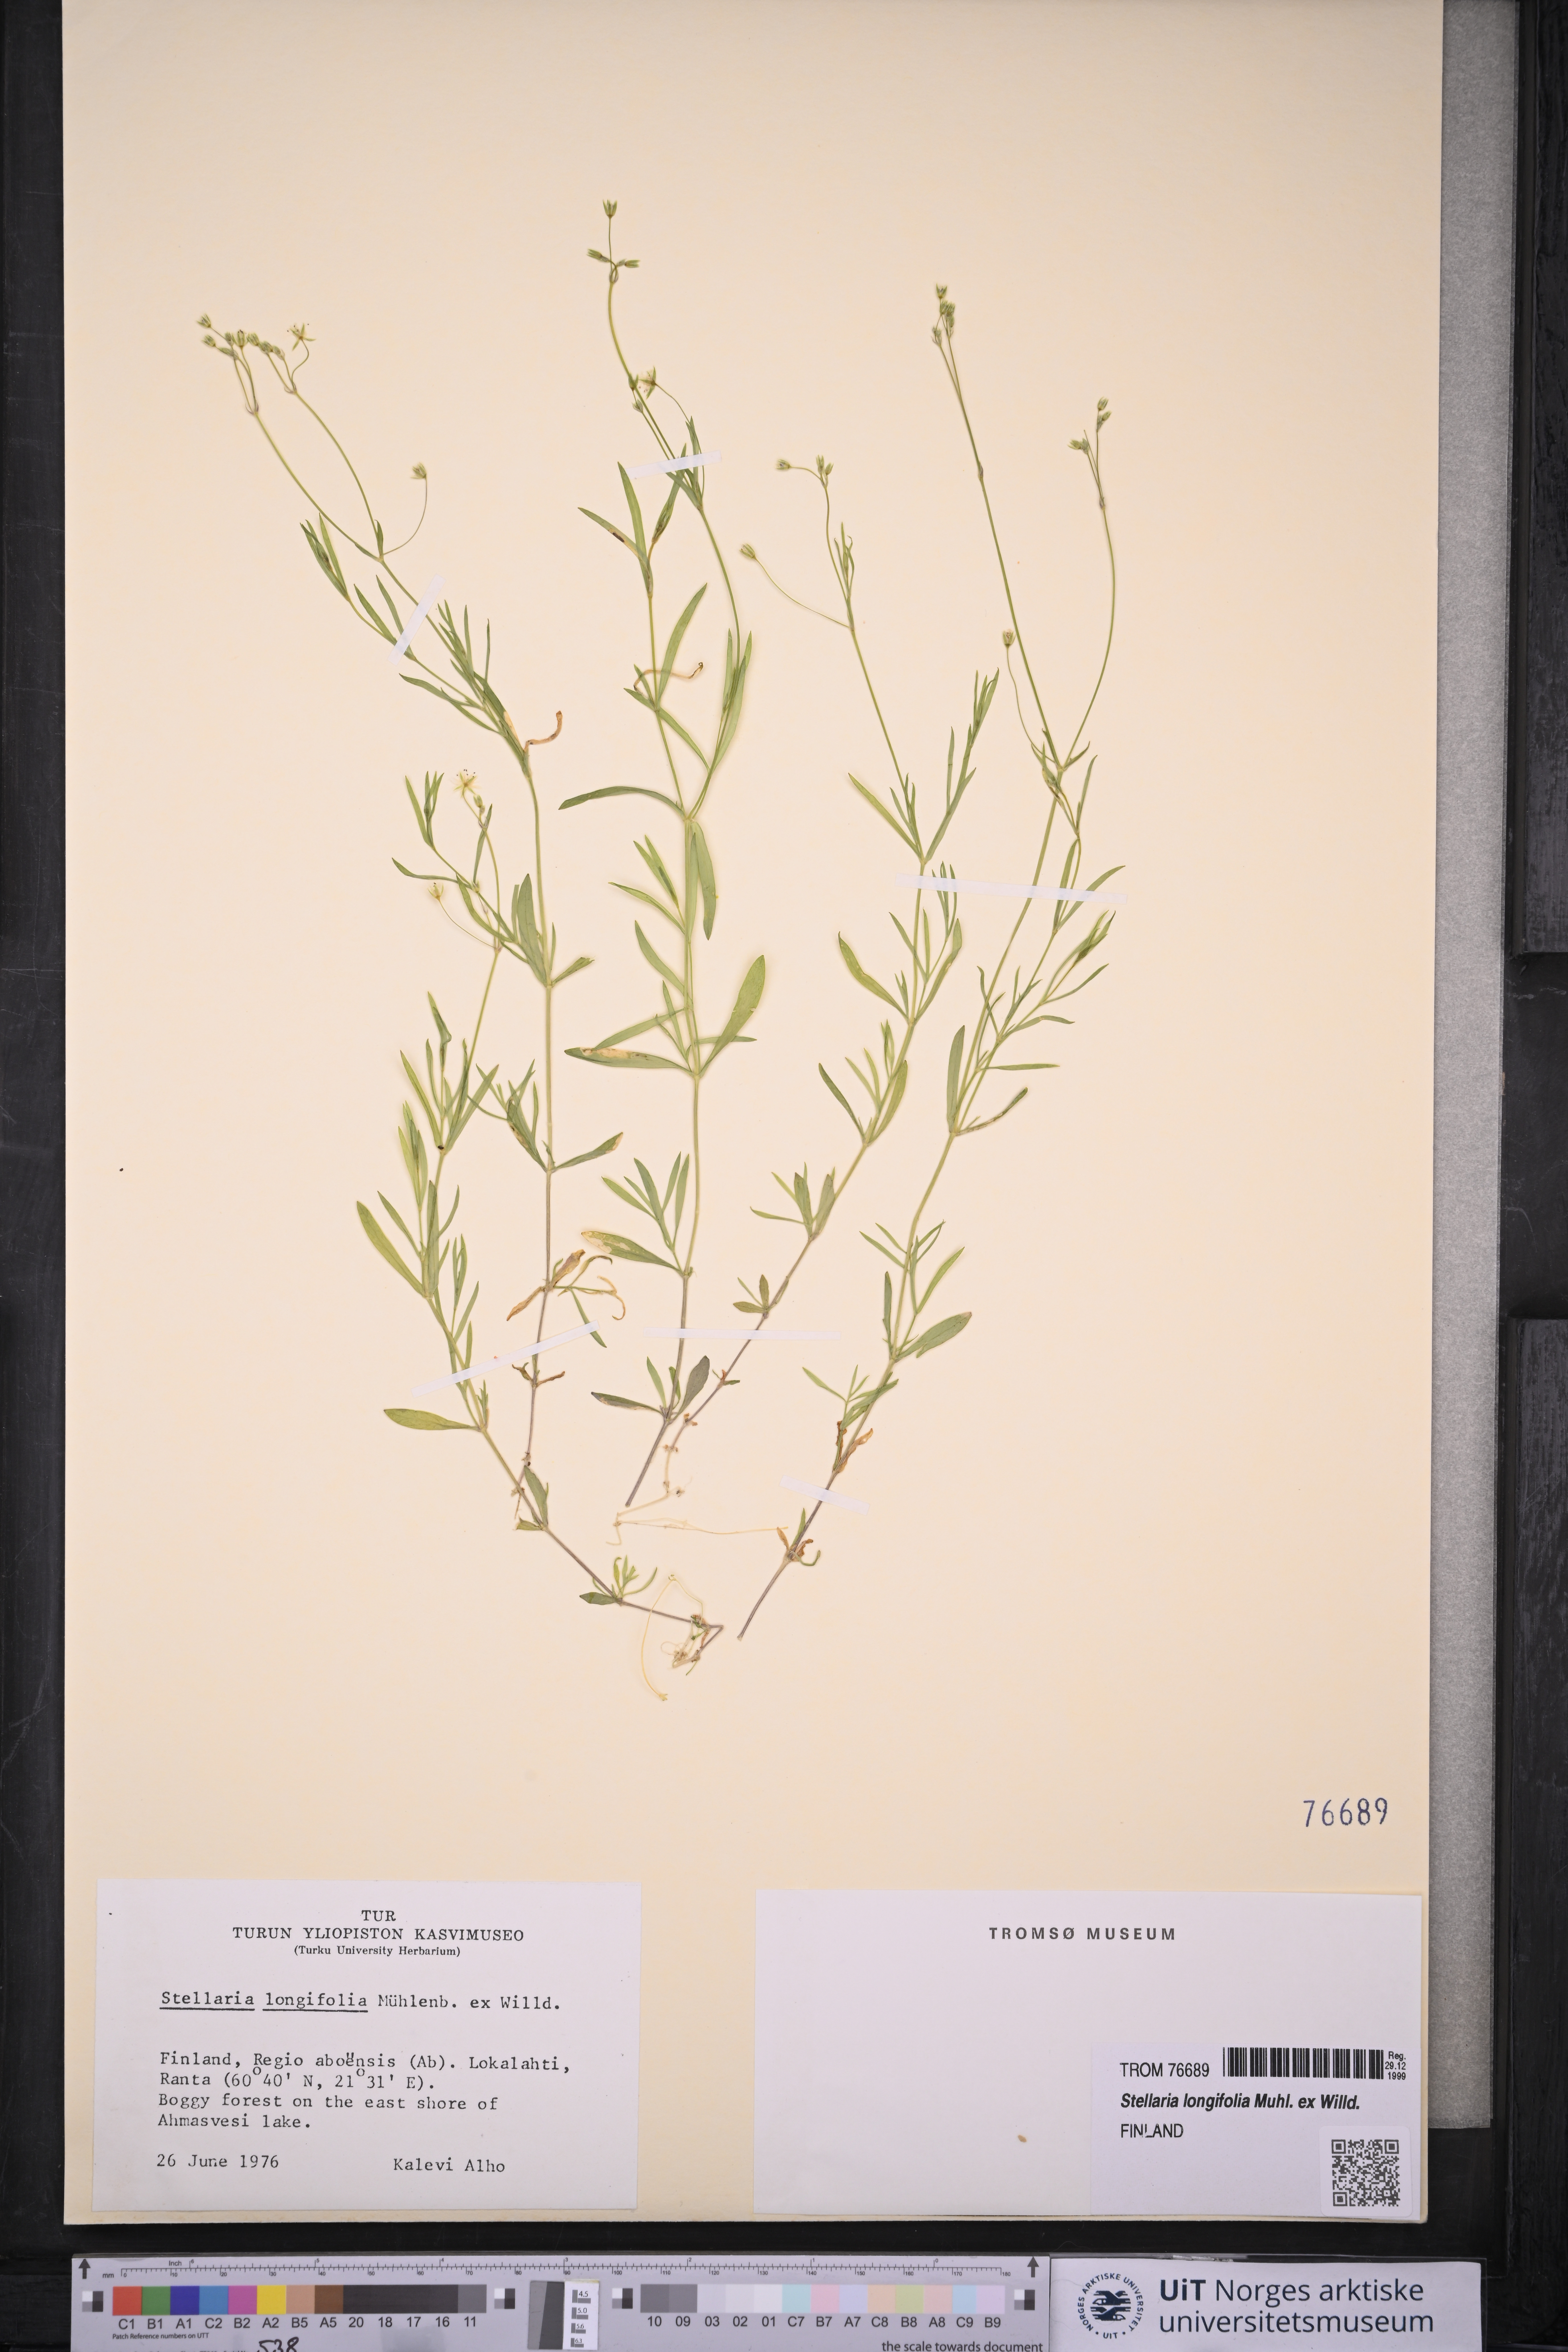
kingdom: Plantae
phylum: Tracheophyta
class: Magnoliopsida
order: Caryophyllales
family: Caryophyllaceae
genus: Stellaria
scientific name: Stellaria longifolia
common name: Long-leaved chickweed
